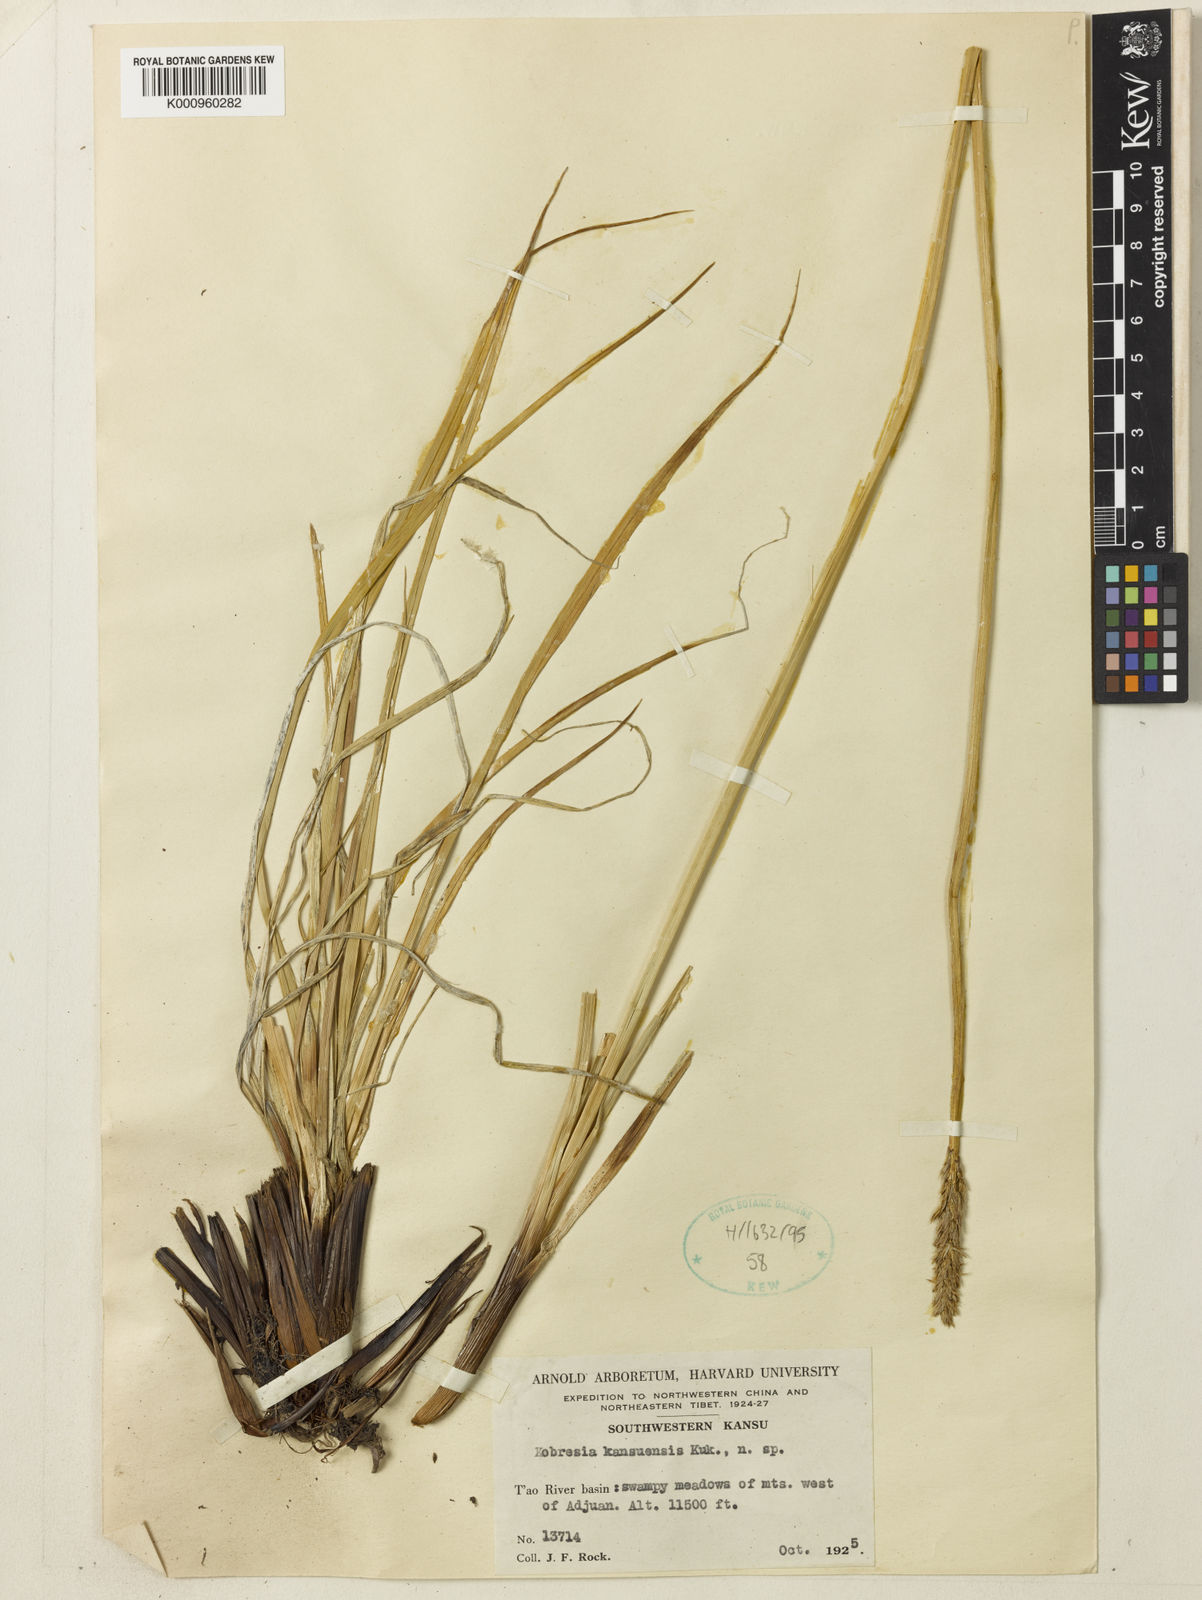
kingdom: Plantae
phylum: Tracheophyta
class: Liliopsida
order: Poales
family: Cyperaceae
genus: Carex
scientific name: Carex
